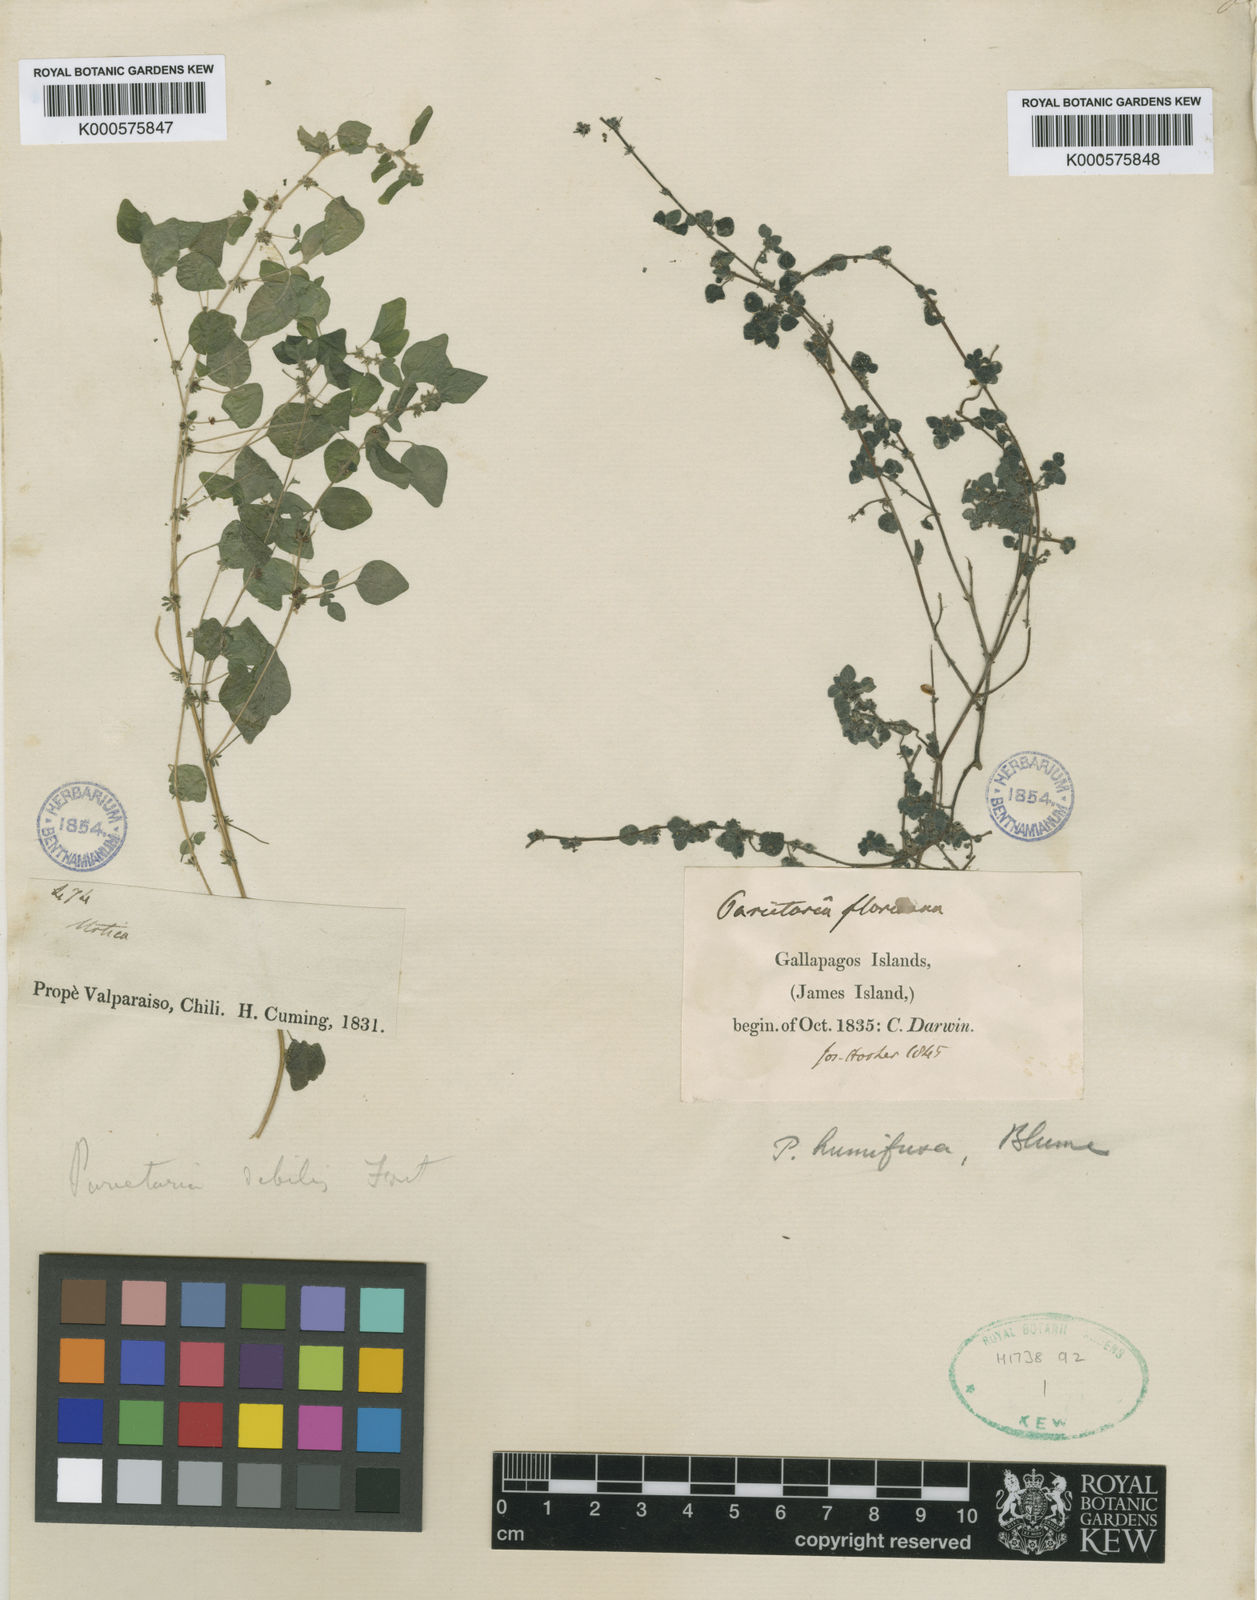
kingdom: Plantae
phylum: Tracheophyta
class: Magnoliopsida
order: Rosales
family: Urticaceae
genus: Parietaria
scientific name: Parietaria debilis
